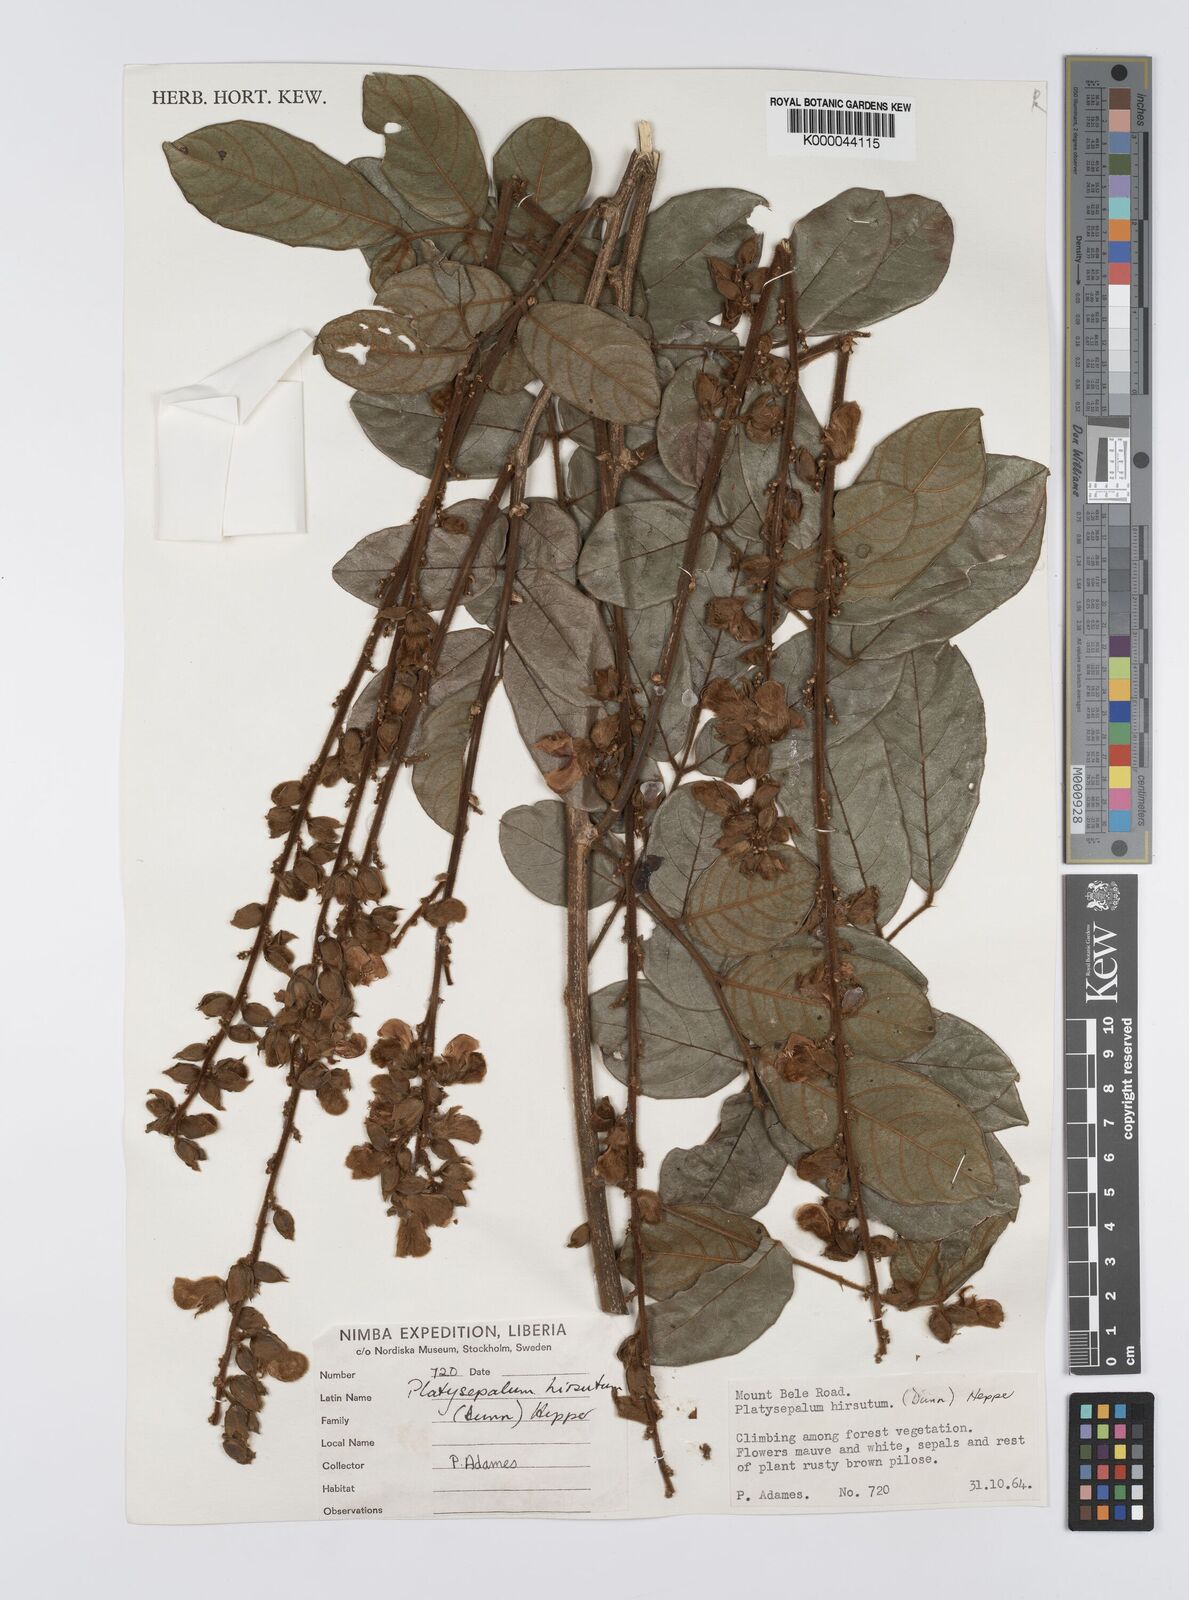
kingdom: Plantae
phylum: Tracheophyta
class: Magnoliopsida
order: Fabales
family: Fabaceae
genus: Platysepalum
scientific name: Platysepalum hirsutum
